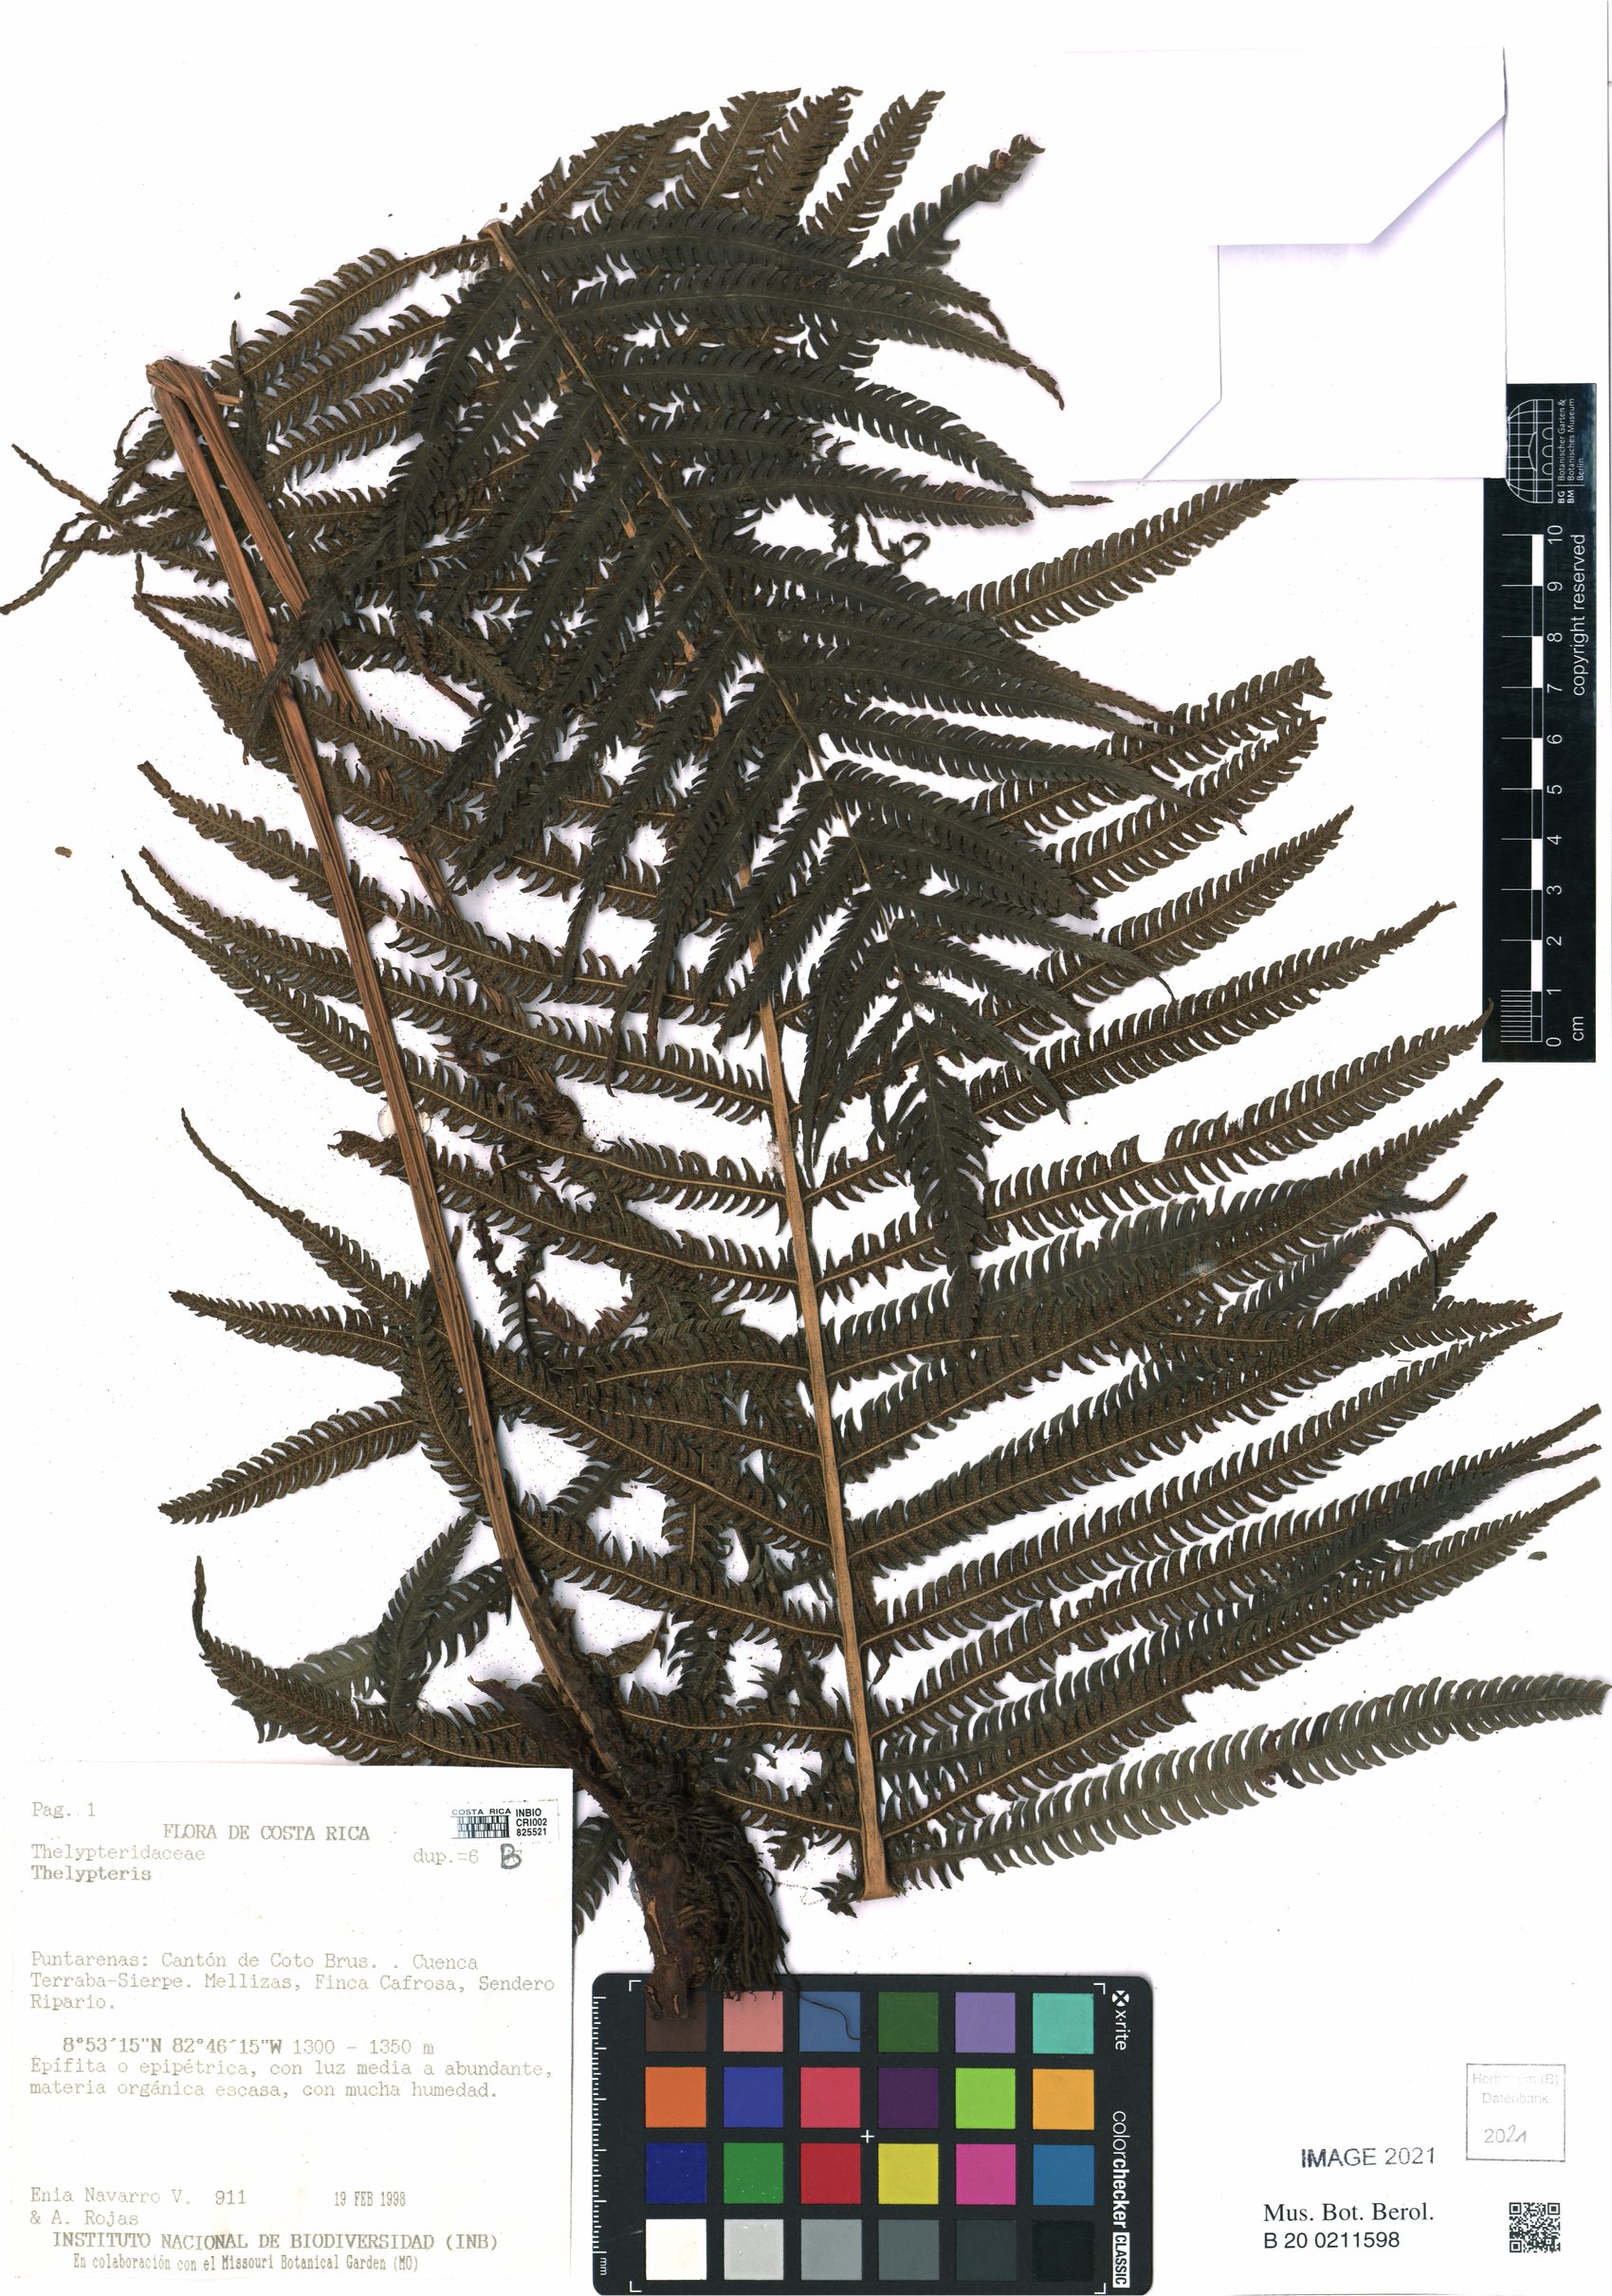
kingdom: Plantae
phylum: Tracheophyta
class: Polypodiopsida
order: Polypodiales
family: Thelypteridaceae
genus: Thelypteris
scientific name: Thelypteris
